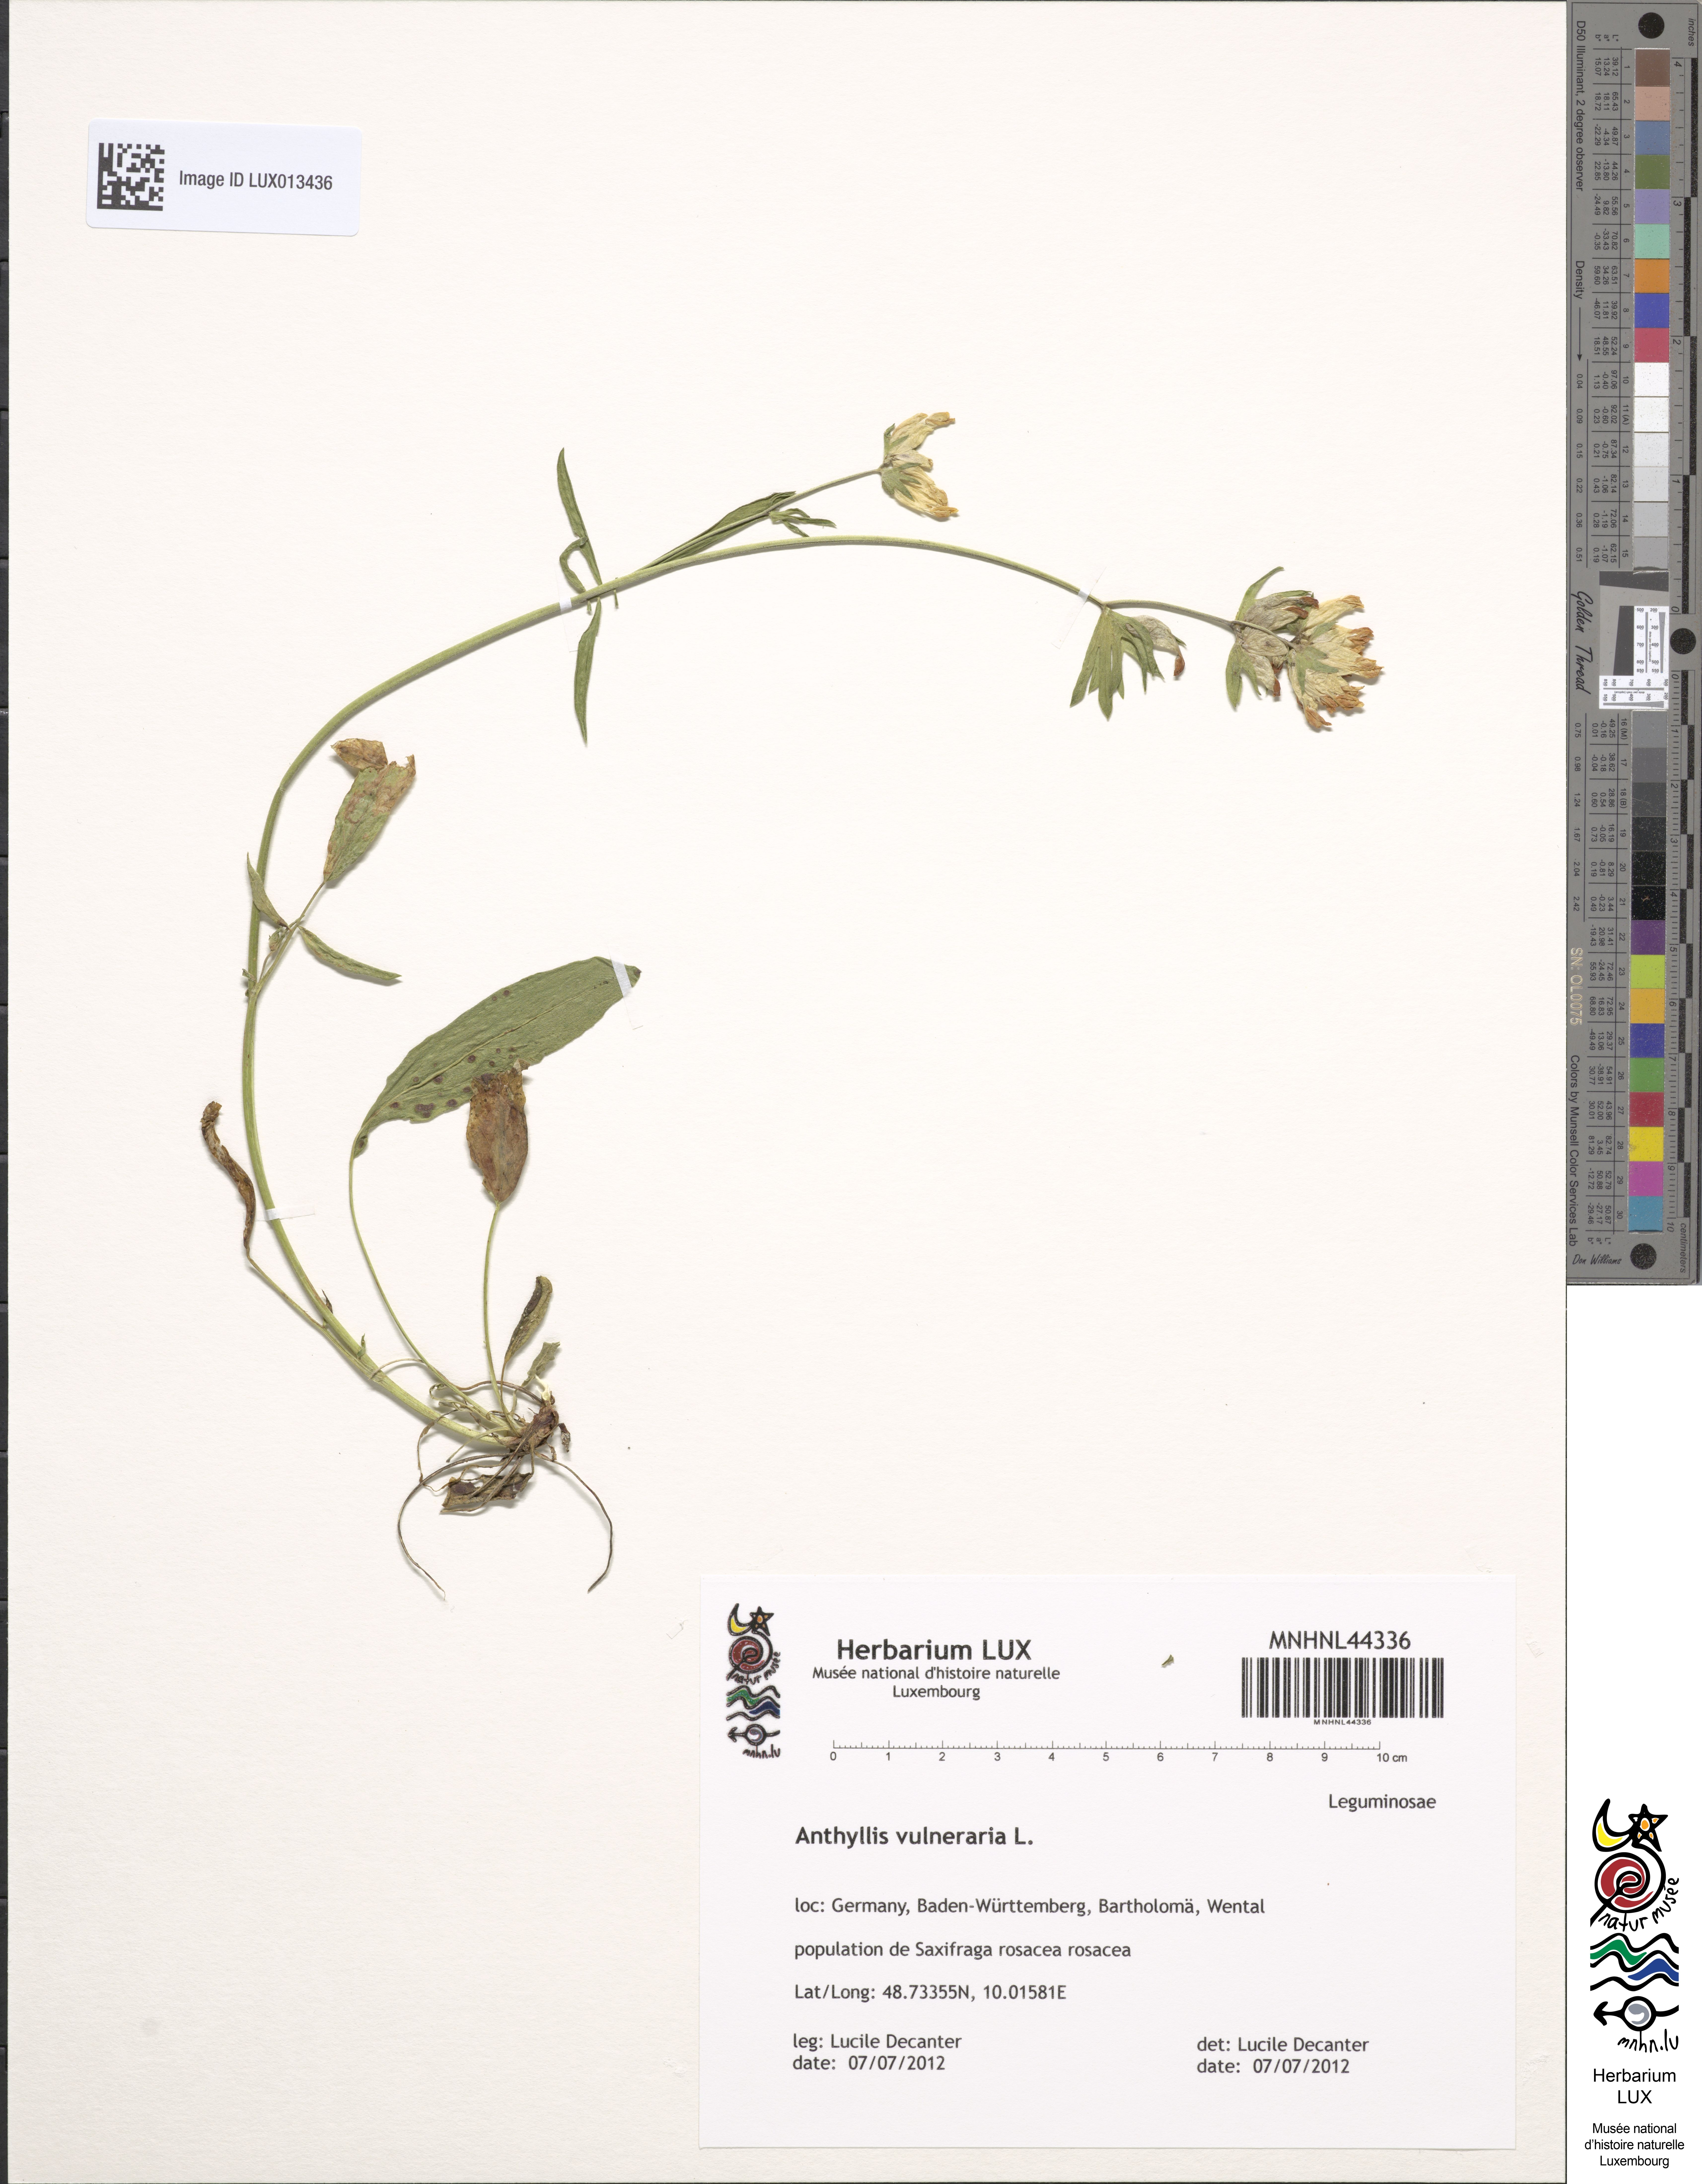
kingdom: Plantae
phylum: Tracheophyta
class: Magnoliopsida
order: Fabales
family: Fabaceae
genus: Anthyllis
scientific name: Anthyllis vulneraria
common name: Kidney vetch
